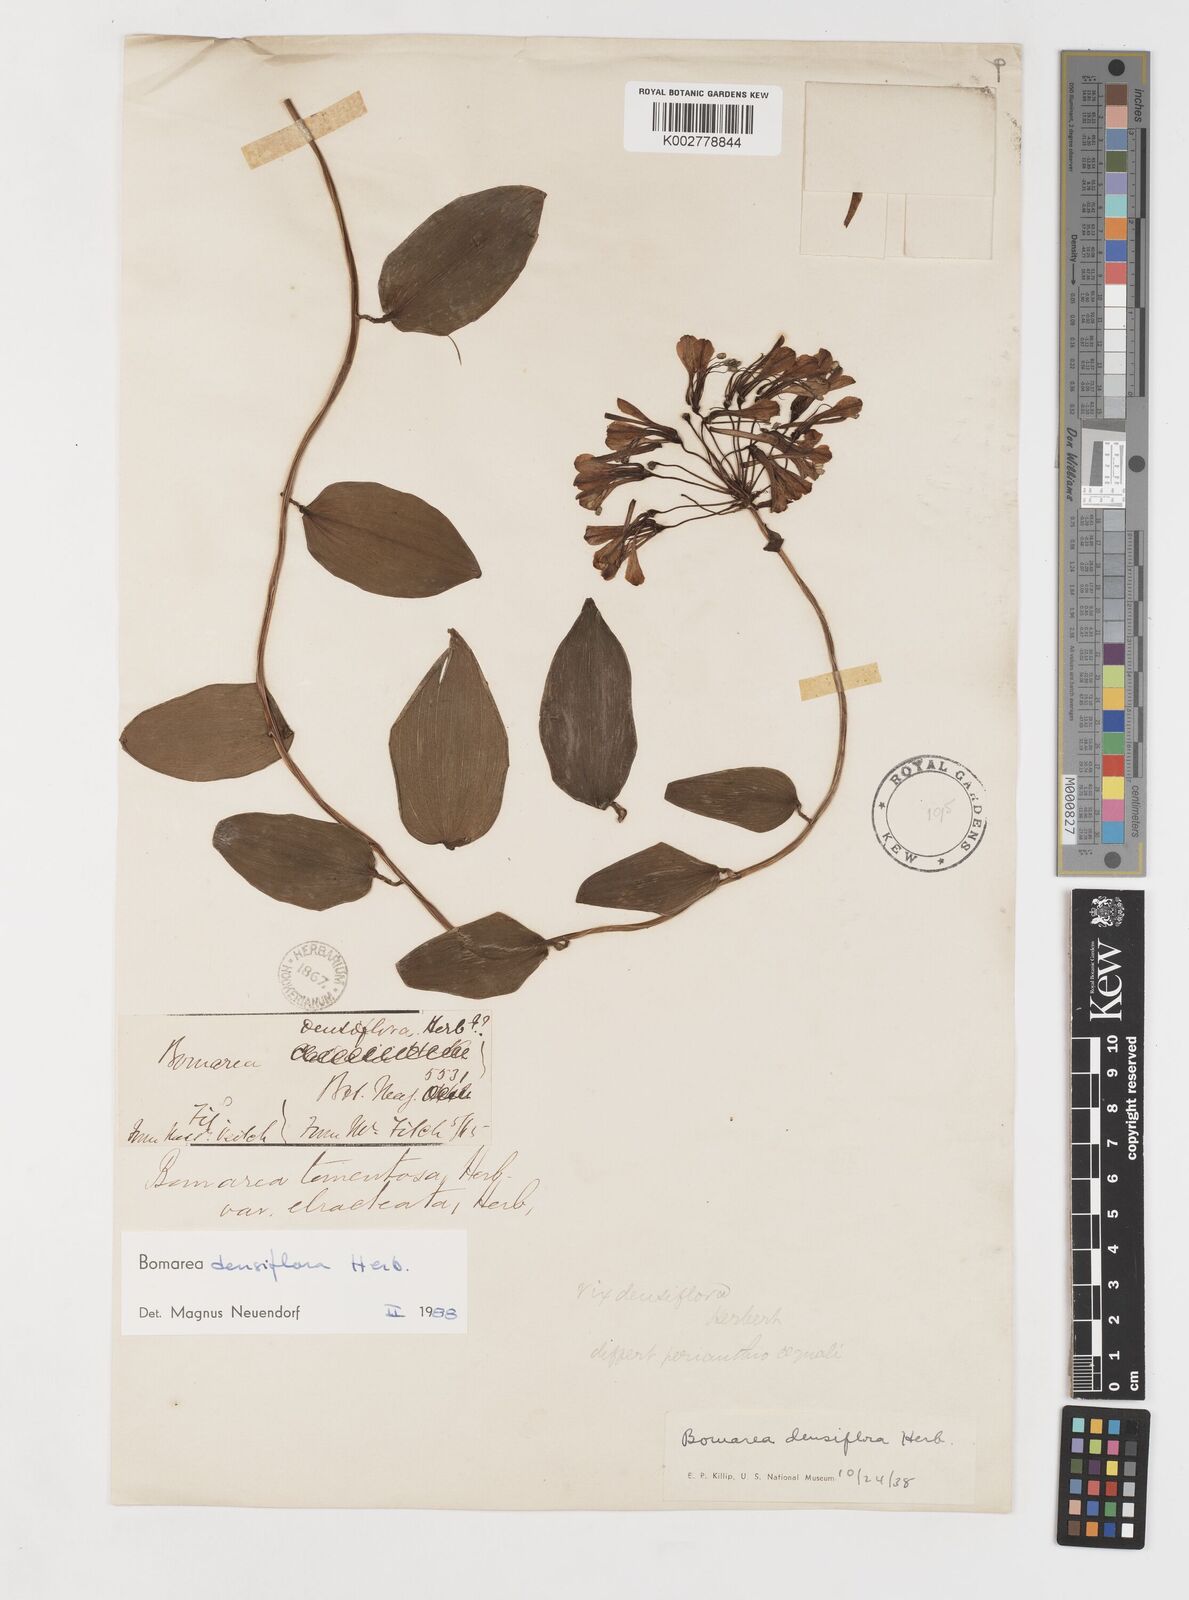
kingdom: Plantae
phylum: Tracheophyta
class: Liliopsida
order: Liliales
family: Alstroemeriaceae
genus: Bomarea
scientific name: Bomarea densiflora
